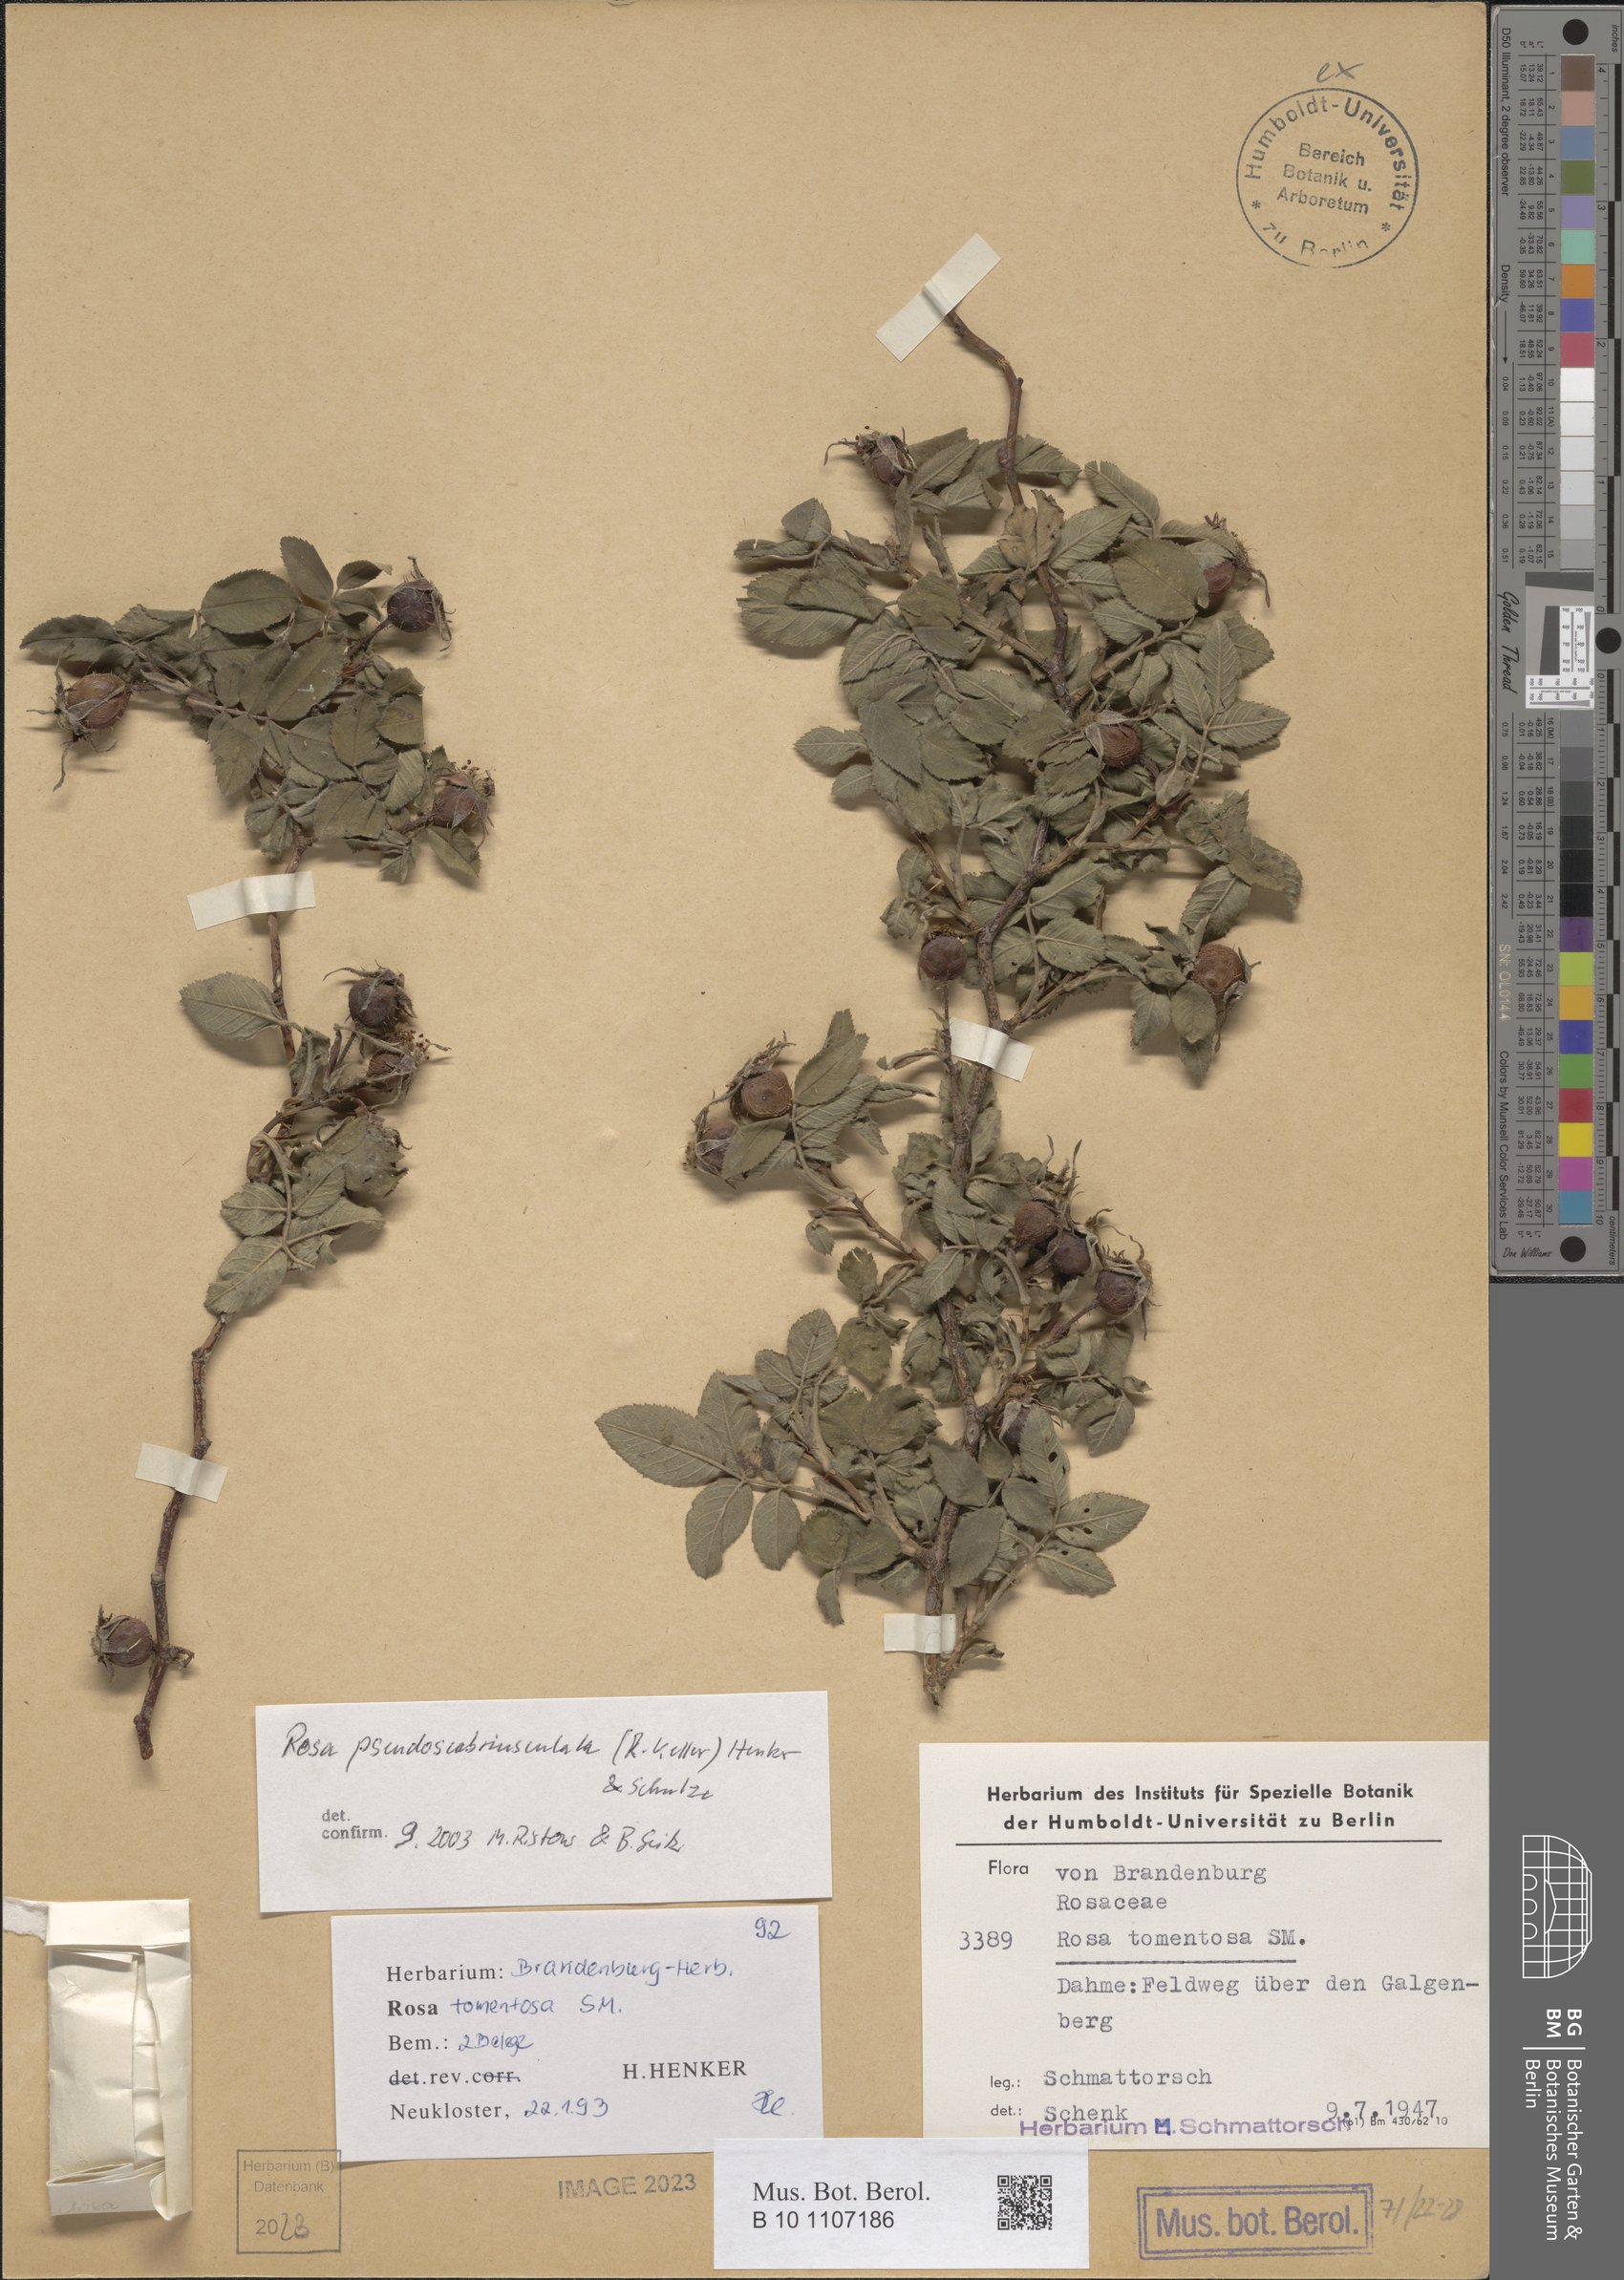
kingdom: Plantae
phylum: Tracheophyta
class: Magnoliopsida
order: Rosales
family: Rosaceae
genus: Rosa
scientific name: Rosa pseudoscabriuscula
